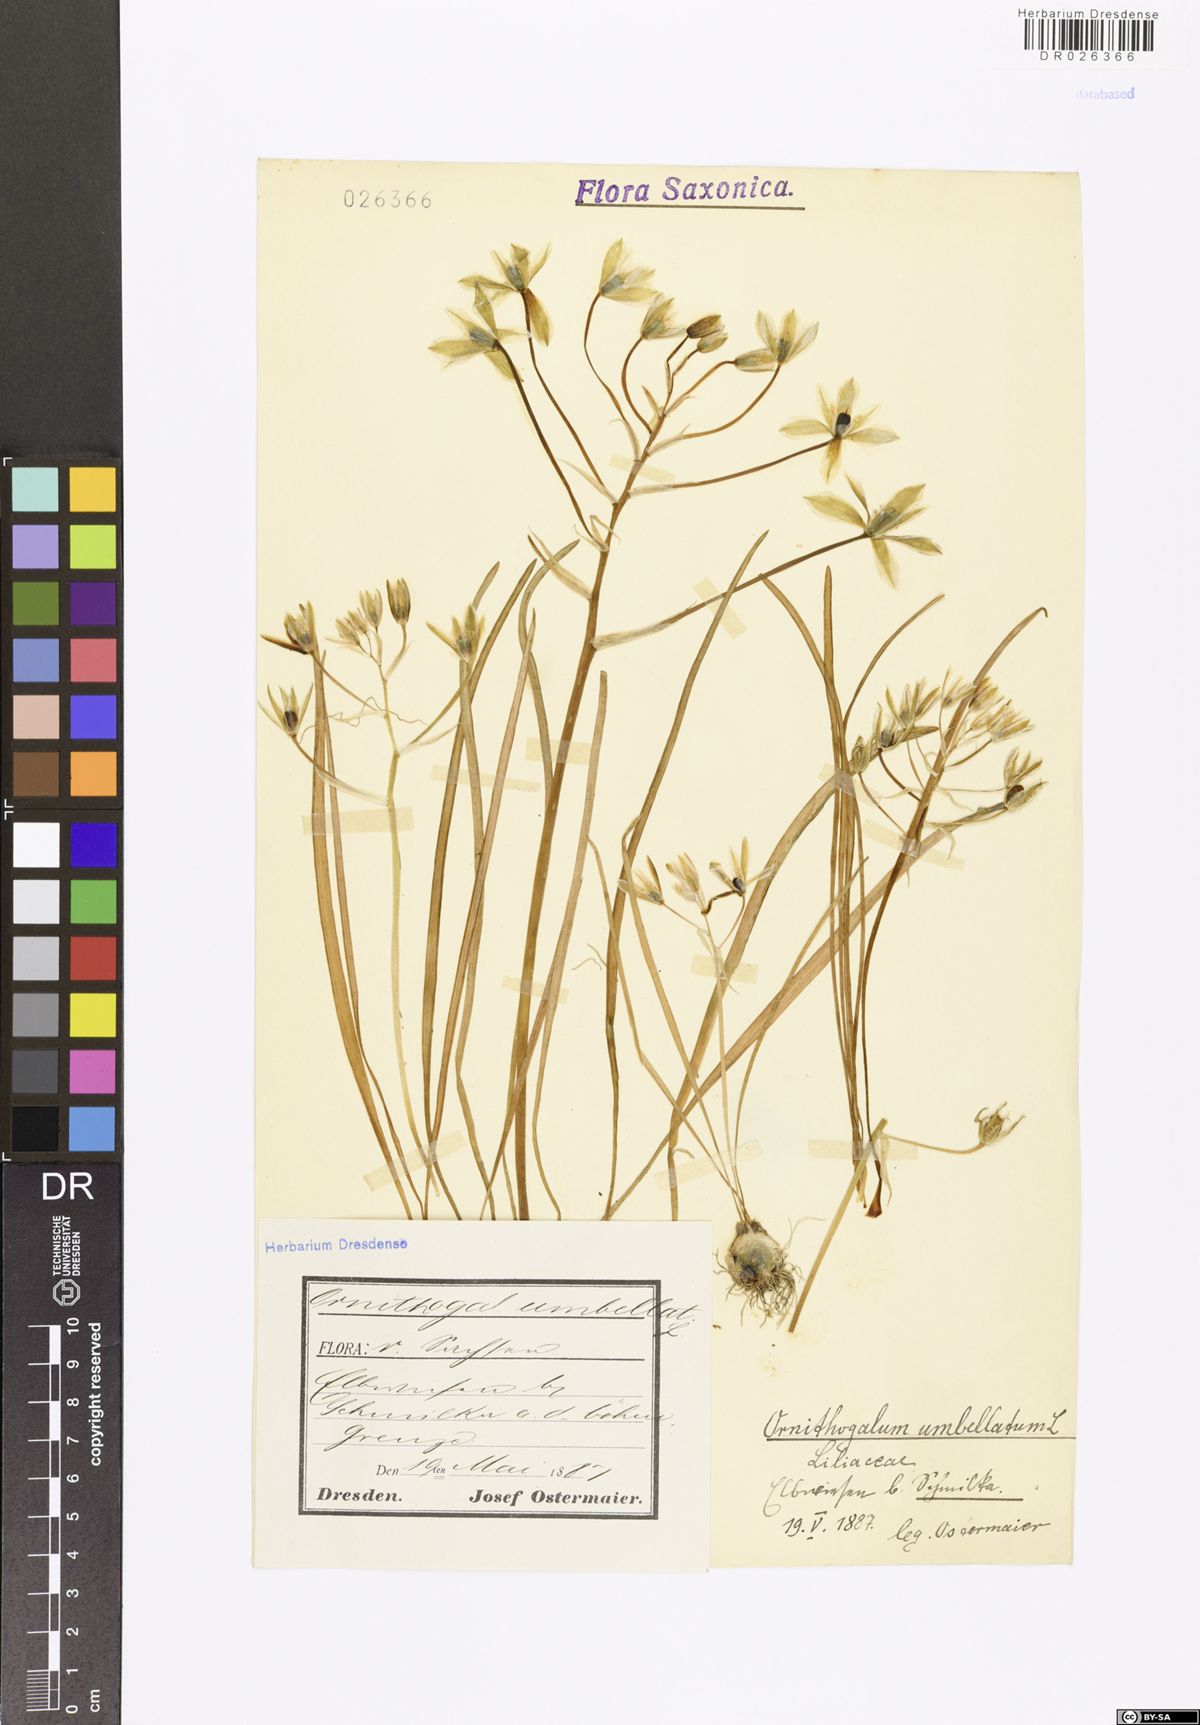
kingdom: Plantae
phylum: Tracheophyta
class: Liliopsida
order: Asparagales
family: Asparagaceae
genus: Ornithogalum
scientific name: Ornithogalum umbellatum
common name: Garden star-of-bethlehem
